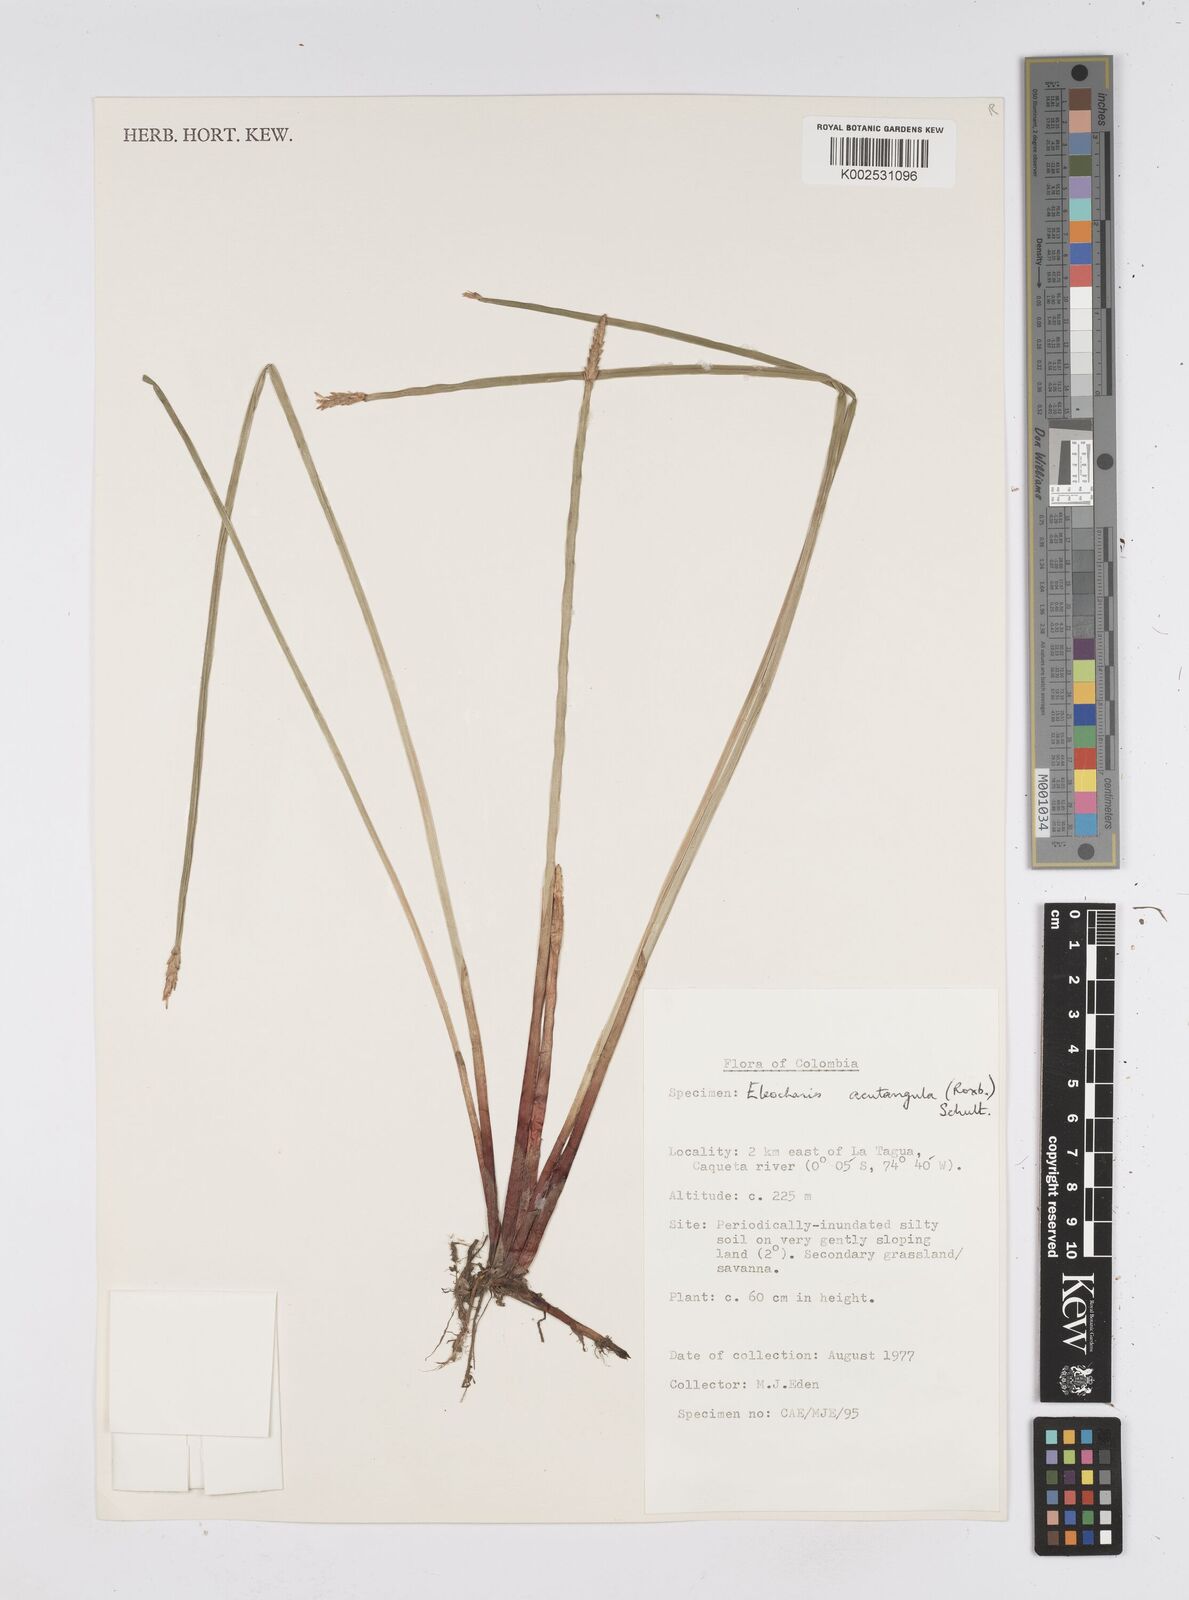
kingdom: Plantae
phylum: Tracheophyta
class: Liliopsida
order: Poales
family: Cyperaceae
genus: Eleocharis
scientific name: Eleocharis acutangula
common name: Acute spikerush
